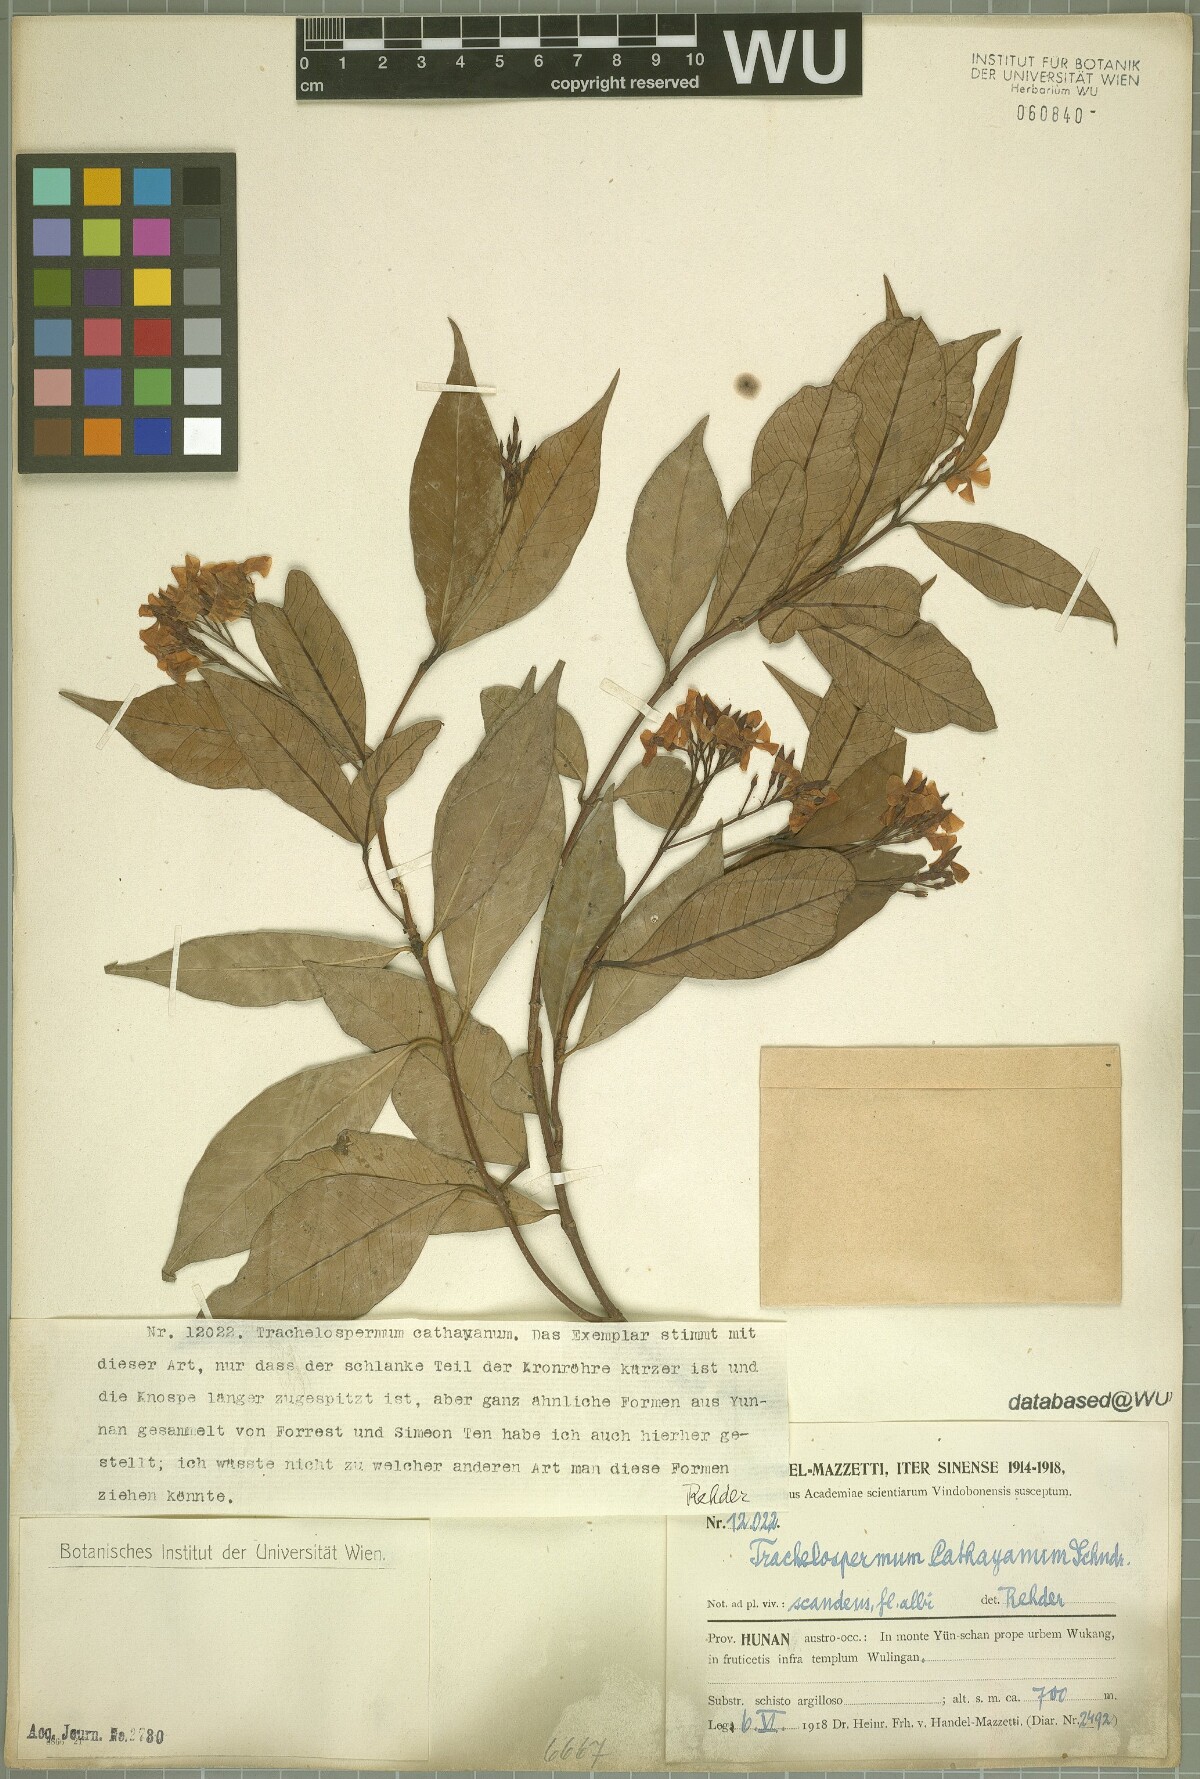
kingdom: Plantae
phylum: Tracheophyta
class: Magnoliopsida
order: Gentianales
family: Apocynaceae
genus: Trachelospermum
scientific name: Trachelospermum bodinieri
